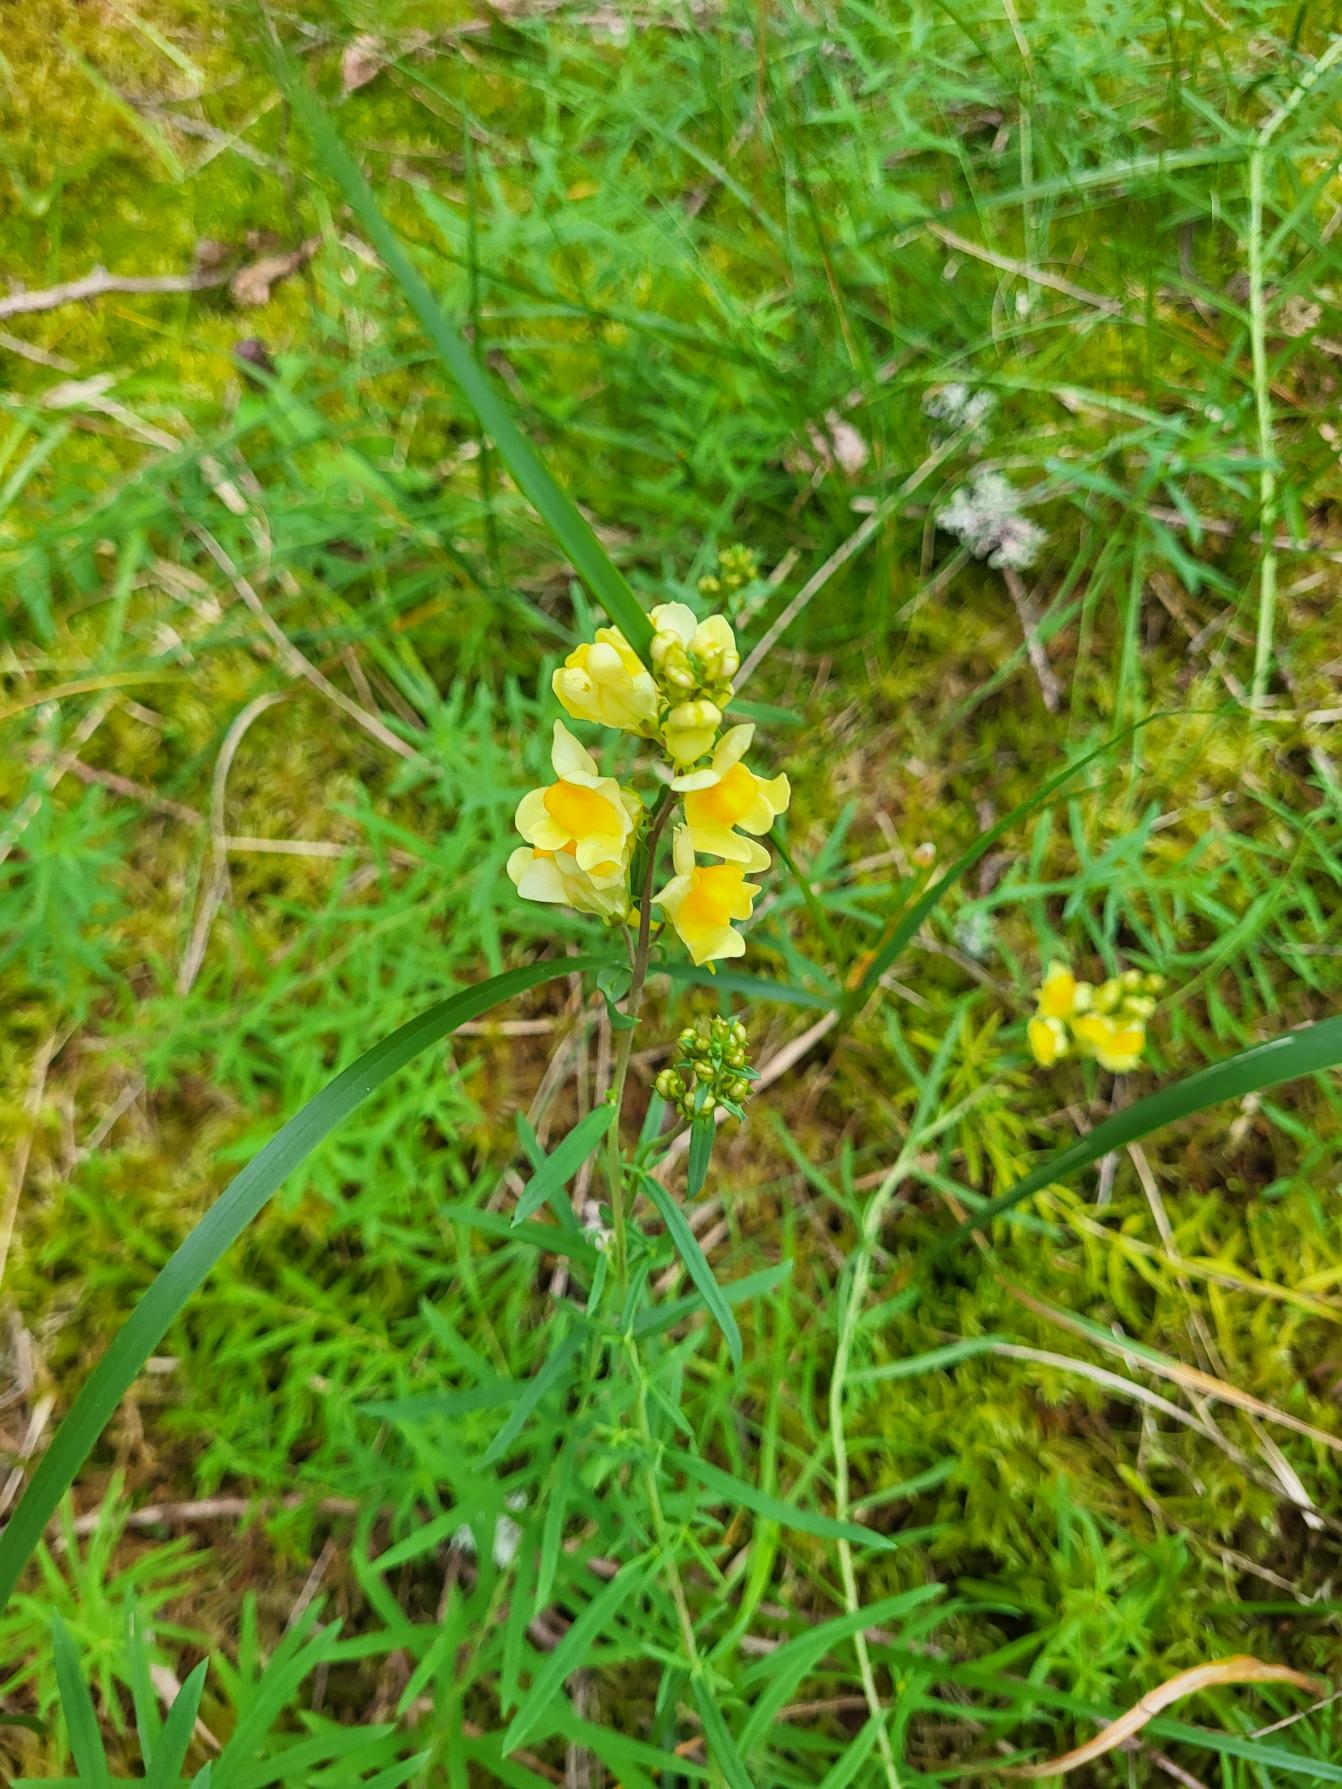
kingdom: Plantae
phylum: Tracheophyta
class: Magnoliopsida
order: Lamiales
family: Plantaginaceae
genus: Linaria
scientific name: Linaria vulgaris
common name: Almindelig torskemund
